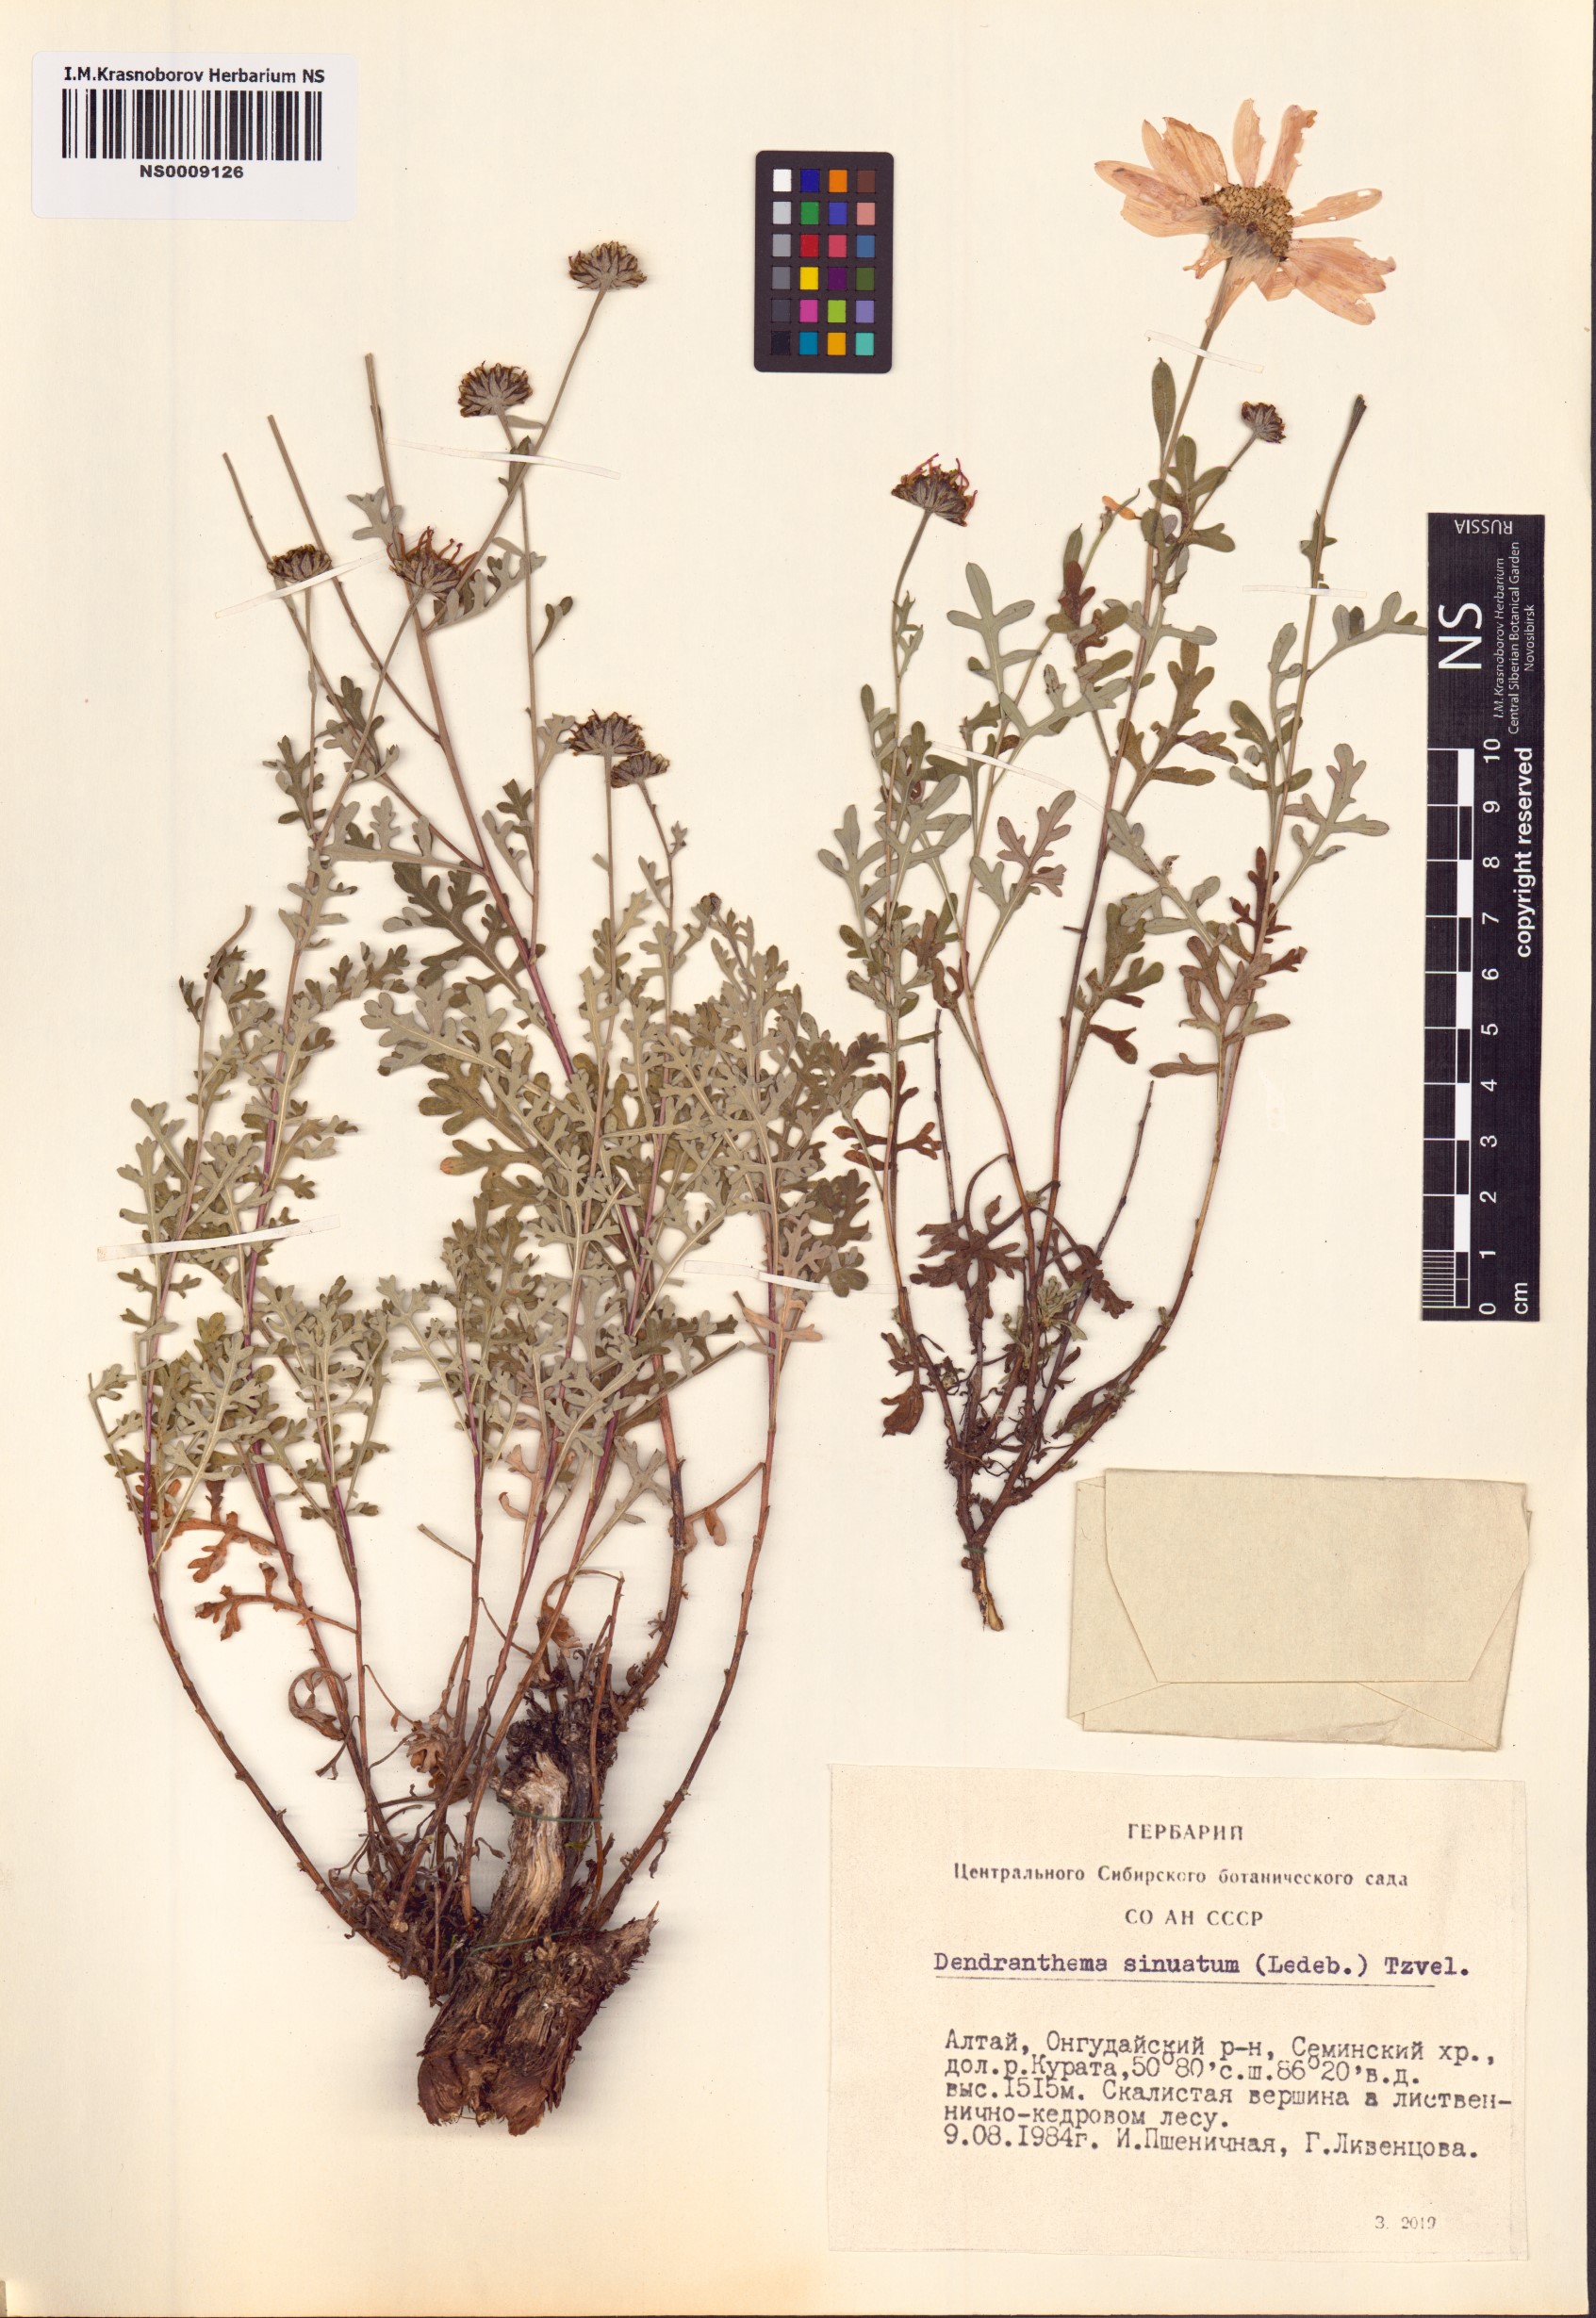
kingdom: Plantae
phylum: Tracheophyta
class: Magnoliopsida
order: Asterales
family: Asteraceae
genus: Chrysanthemum
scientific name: Chrysanthemum sinuatum
